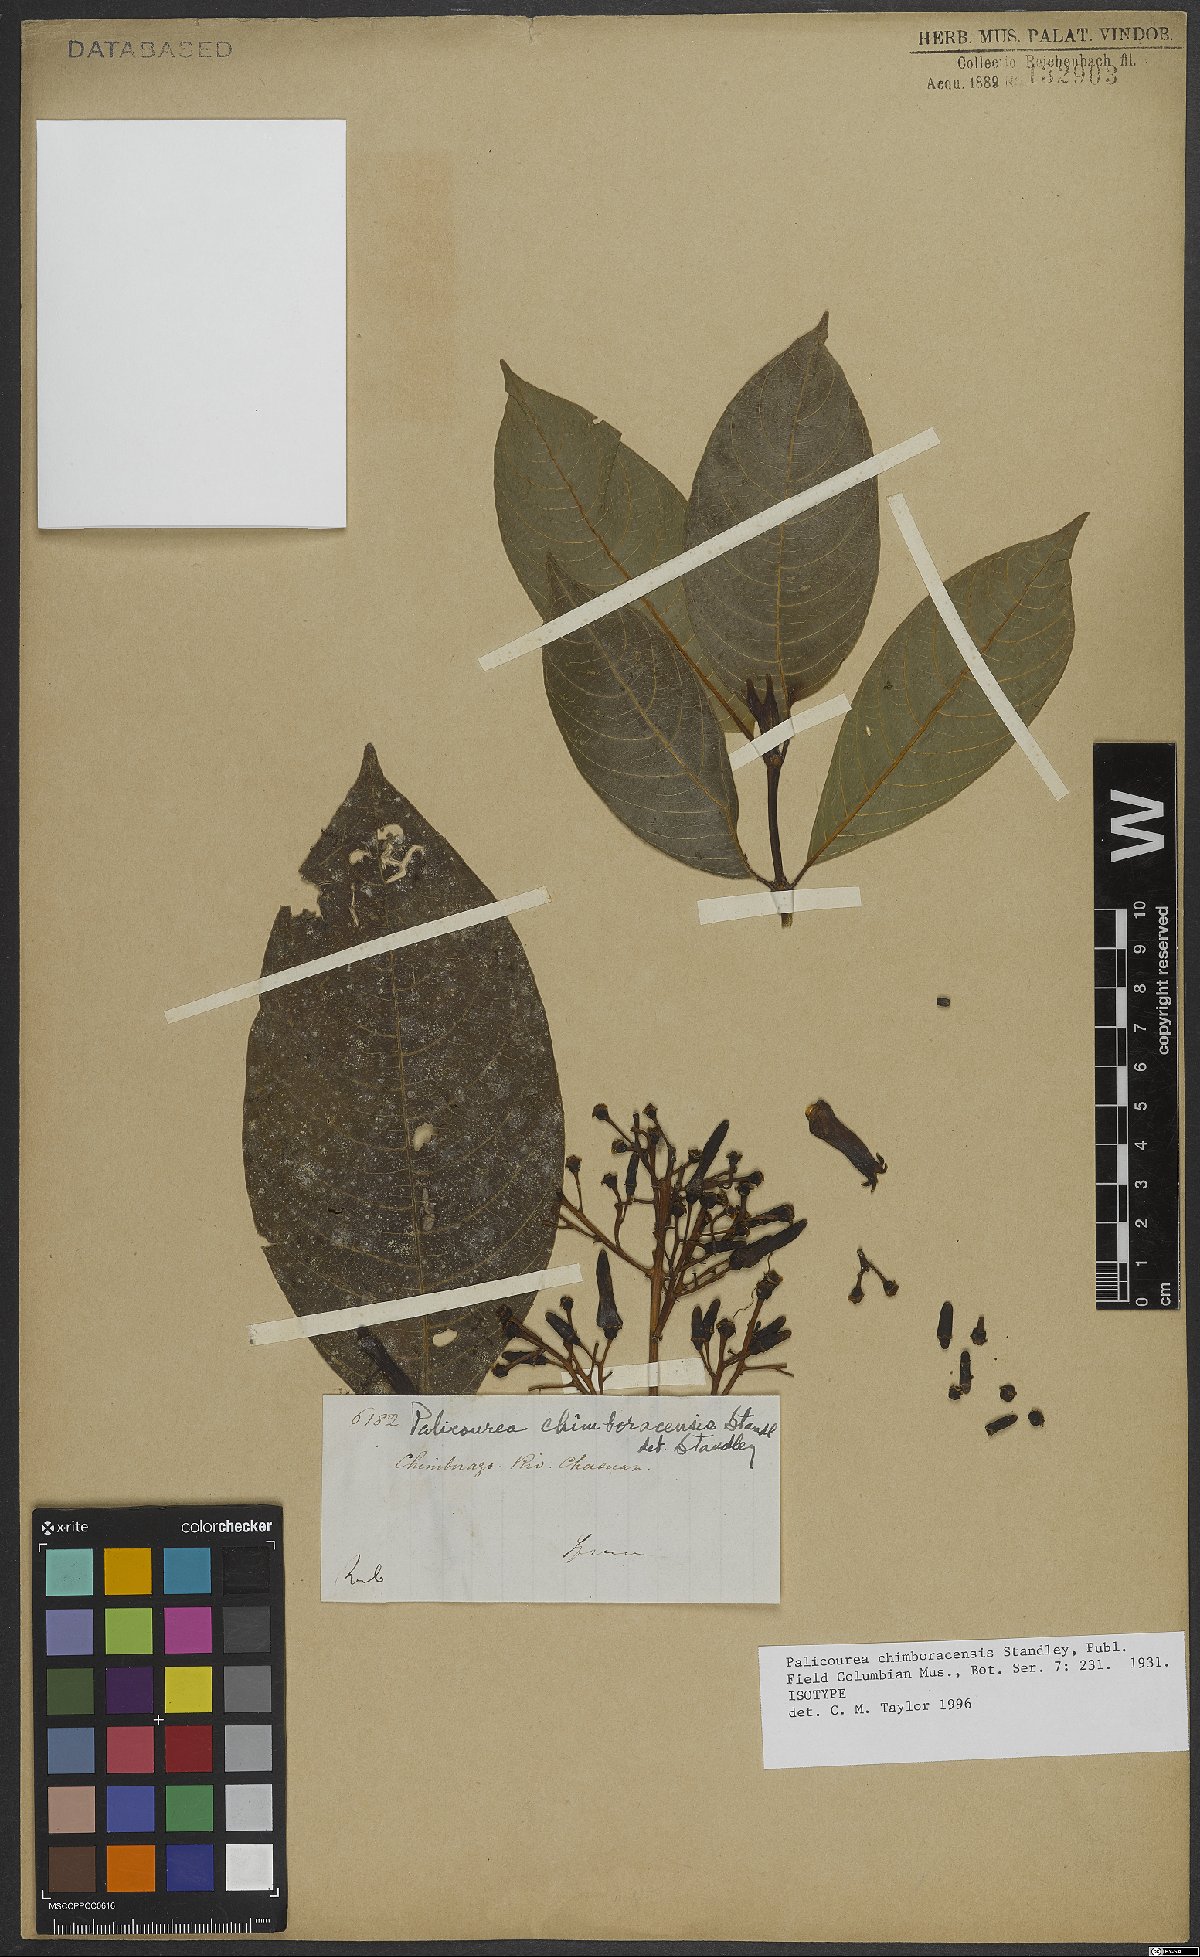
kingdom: Plantae
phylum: Tracheophyta
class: Magnoliopsida
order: Gentianales
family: Rubiaceae
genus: Palicourea
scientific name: Palicourea chimboracensis
